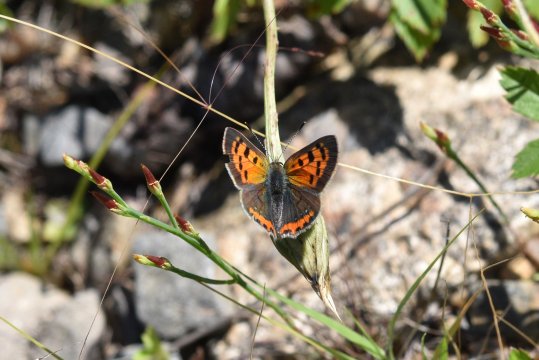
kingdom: Animalia
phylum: Arthropoda
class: Insecta
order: Lepidoptera
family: Lycaenidae
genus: Lycaena
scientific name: Lycaena phlaeas
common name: American Copper
